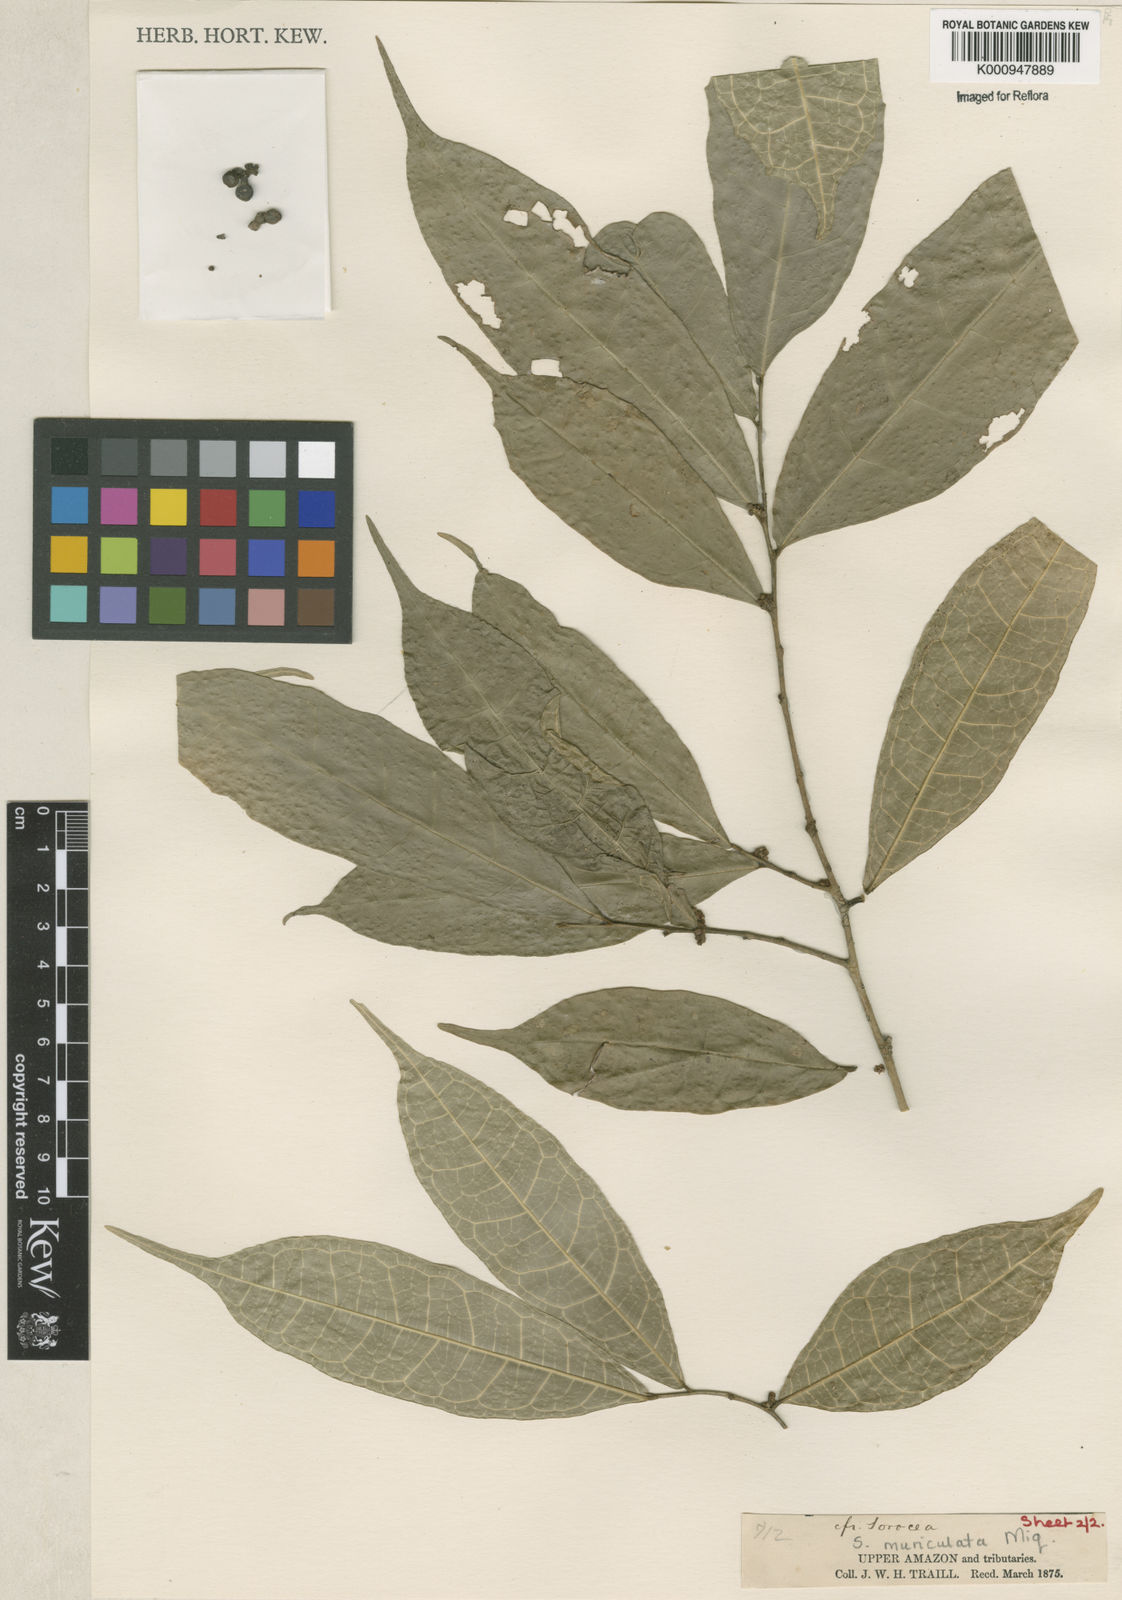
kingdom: Plantae
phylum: Tracheophyta
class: Magnoliopsida
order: Rosales
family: Moraceae
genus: Sorocea
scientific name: Sorocea muriculata
